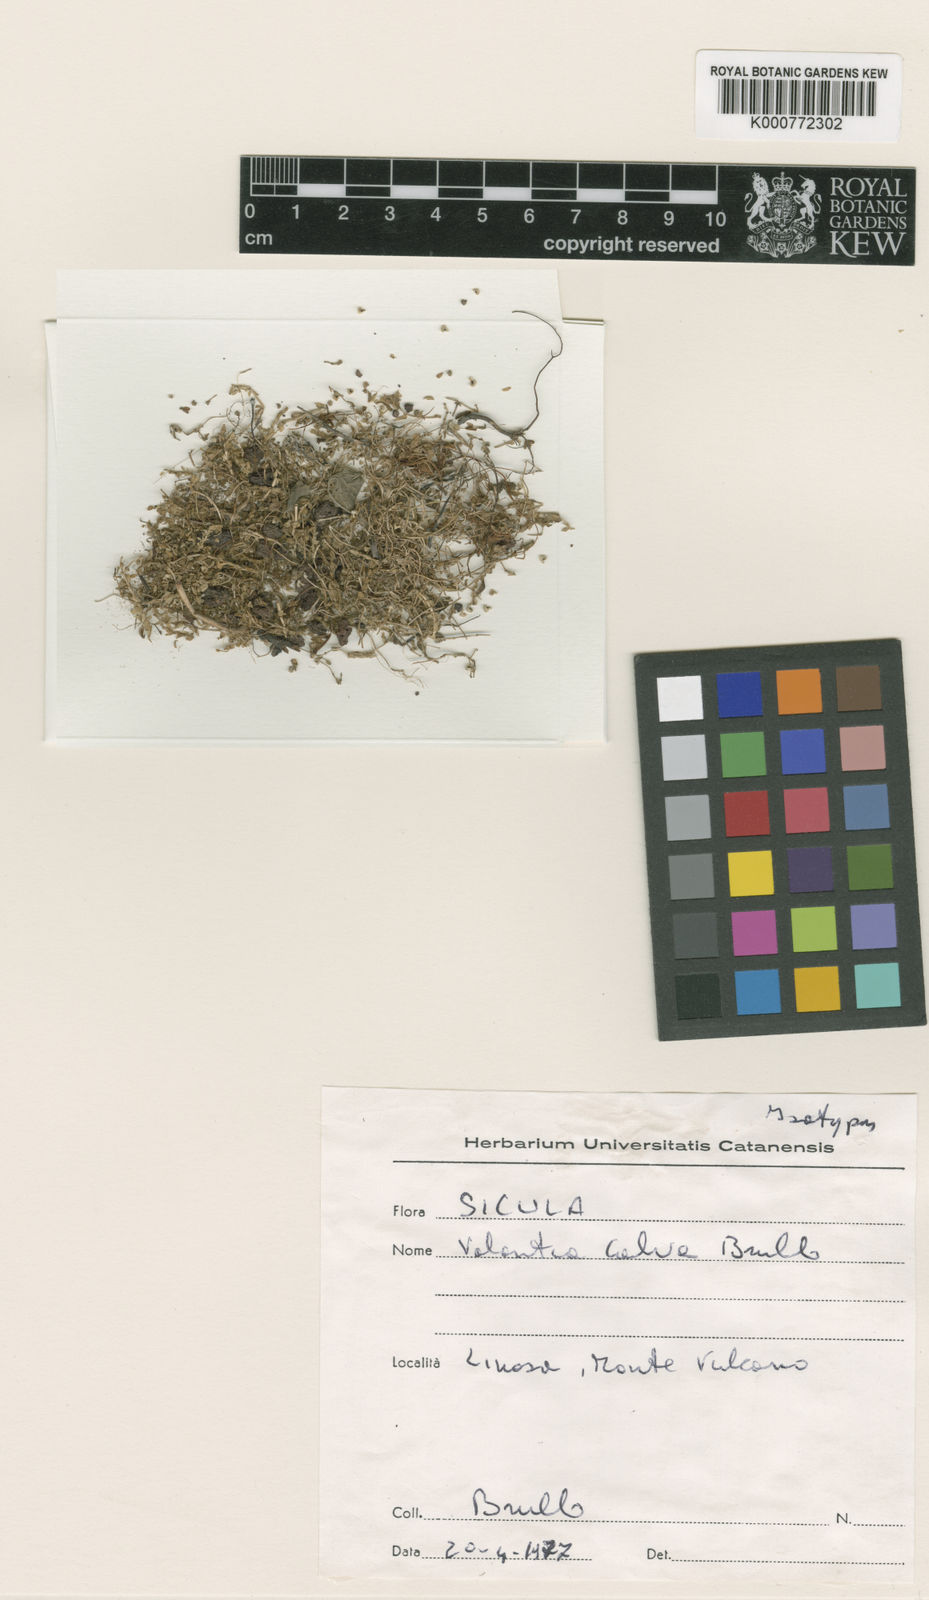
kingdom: Plantae
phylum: Tracheophyta
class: Magnoliopsida
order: Gentianales
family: Rubiaceae
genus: Valantia
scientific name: Valantia calva
